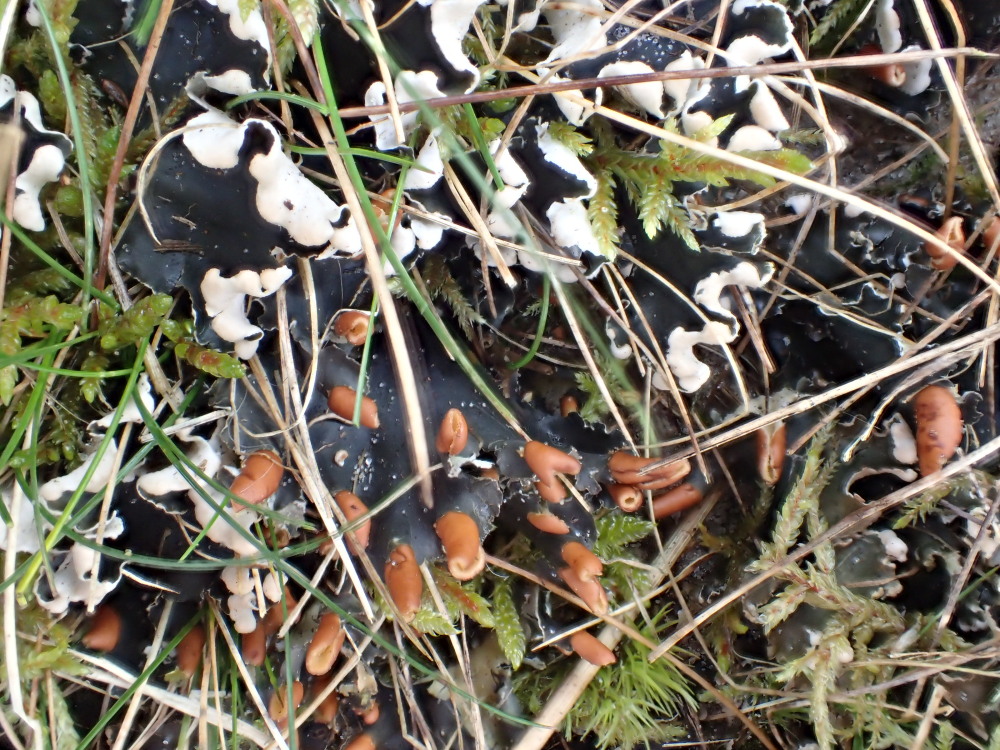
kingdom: Fungi
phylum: Ascomycota
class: Lecanoromycetes
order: Peltigerales
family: Peltigeraceae
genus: Peltigera
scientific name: Peltigera hymenina
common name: hinde-skjoldlav
